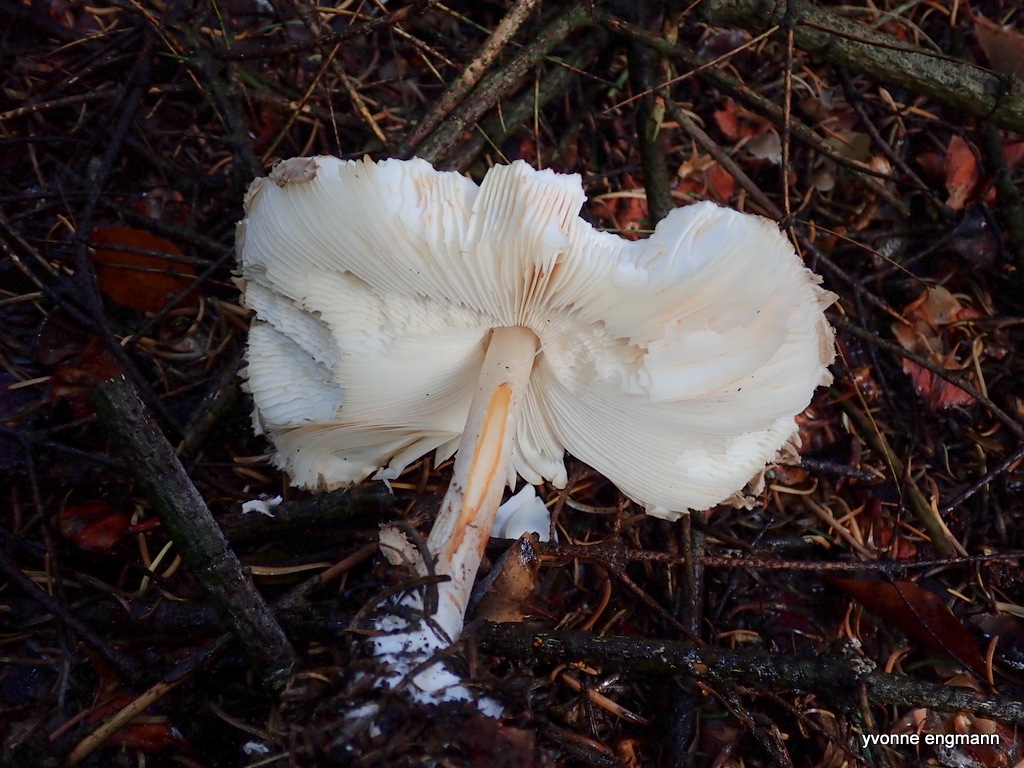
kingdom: Fungi
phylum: Basidiomycota
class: Agaricomycetes
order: Agaricales
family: Agaricaceae
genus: Chlorophyllum
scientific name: Chlorophyllum olivieri
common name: almindelig rabarberhat
